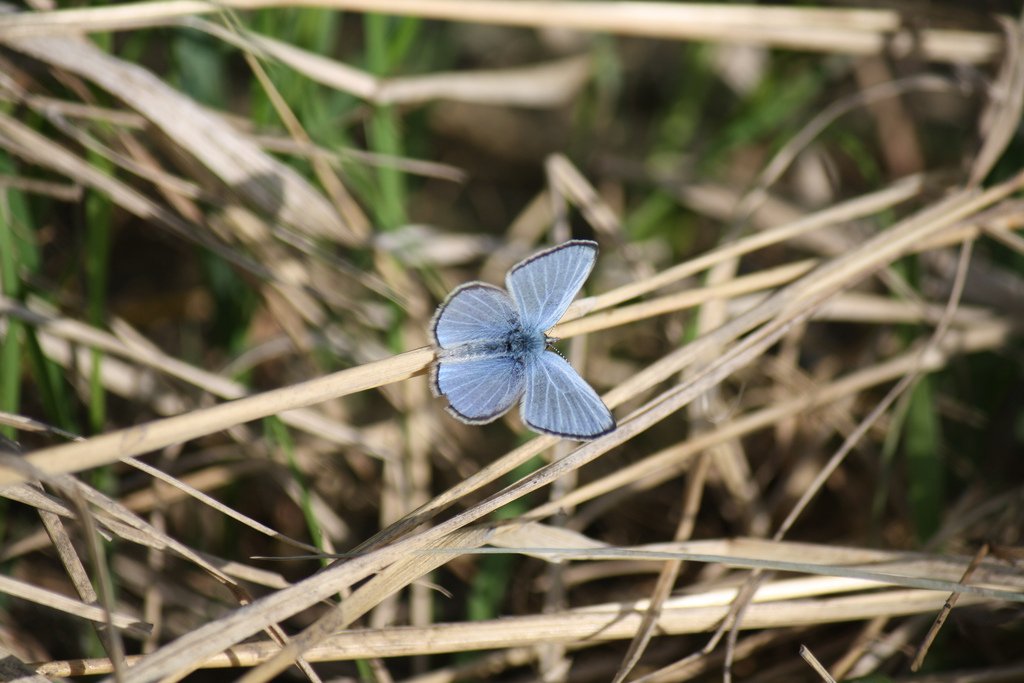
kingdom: Animalia
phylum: Arthropoda
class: Insecta
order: Lepidoptera
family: Lycaenidae
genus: Glaucopsyche
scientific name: Glaucopsyche lygdamus
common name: Silvery Blue
